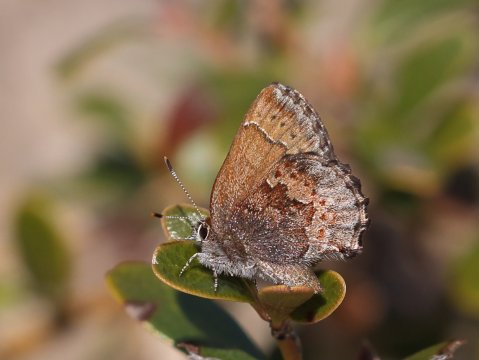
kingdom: Animalia
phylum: Arthropoda
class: Insecta
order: Lepidoptera
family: Lycaenidae
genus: Callophrys
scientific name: Callophrys polios
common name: Hoary Elfin
